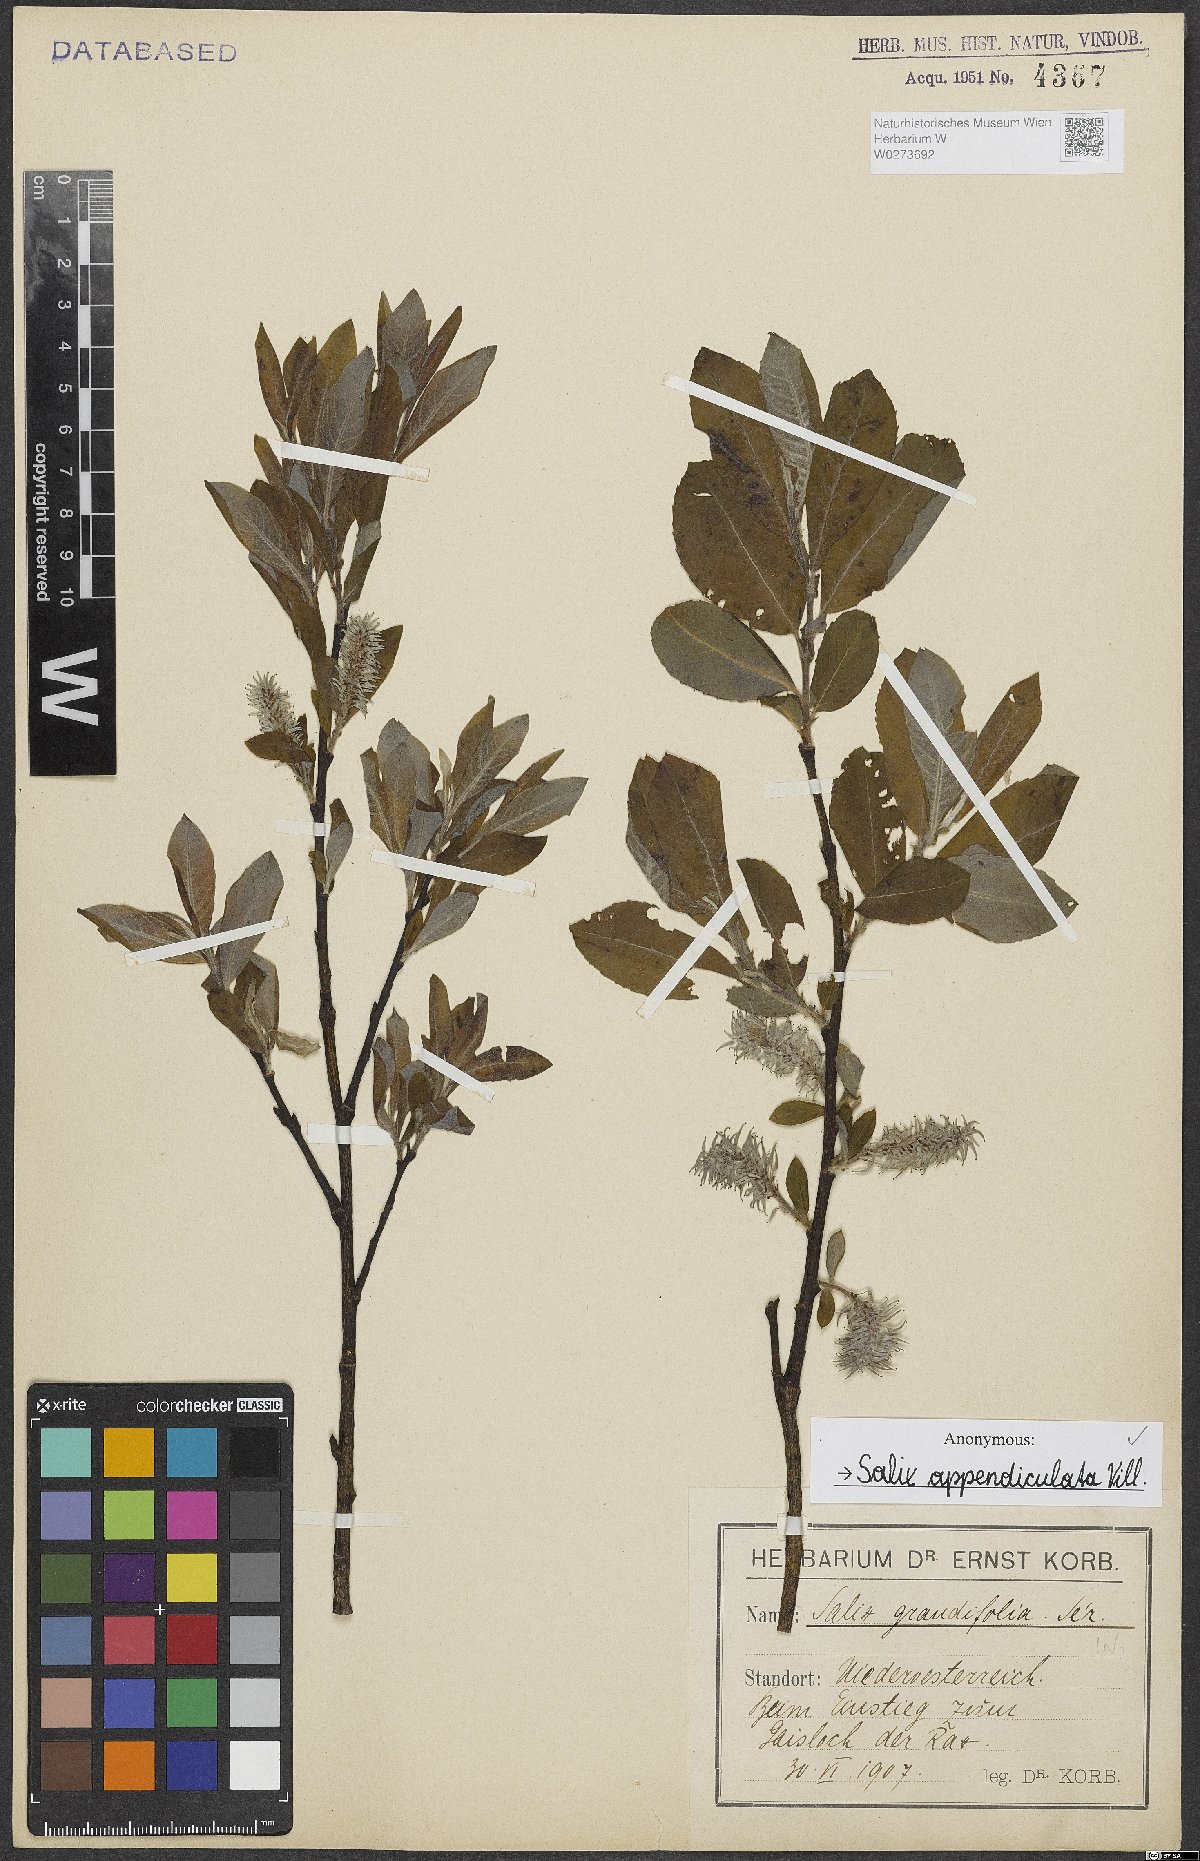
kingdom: Plantae
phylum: Tracheophyta
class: Magnoliopsida
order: Malpighiales
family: Salicaceae
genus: Salix
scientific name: Salix appendiculata
